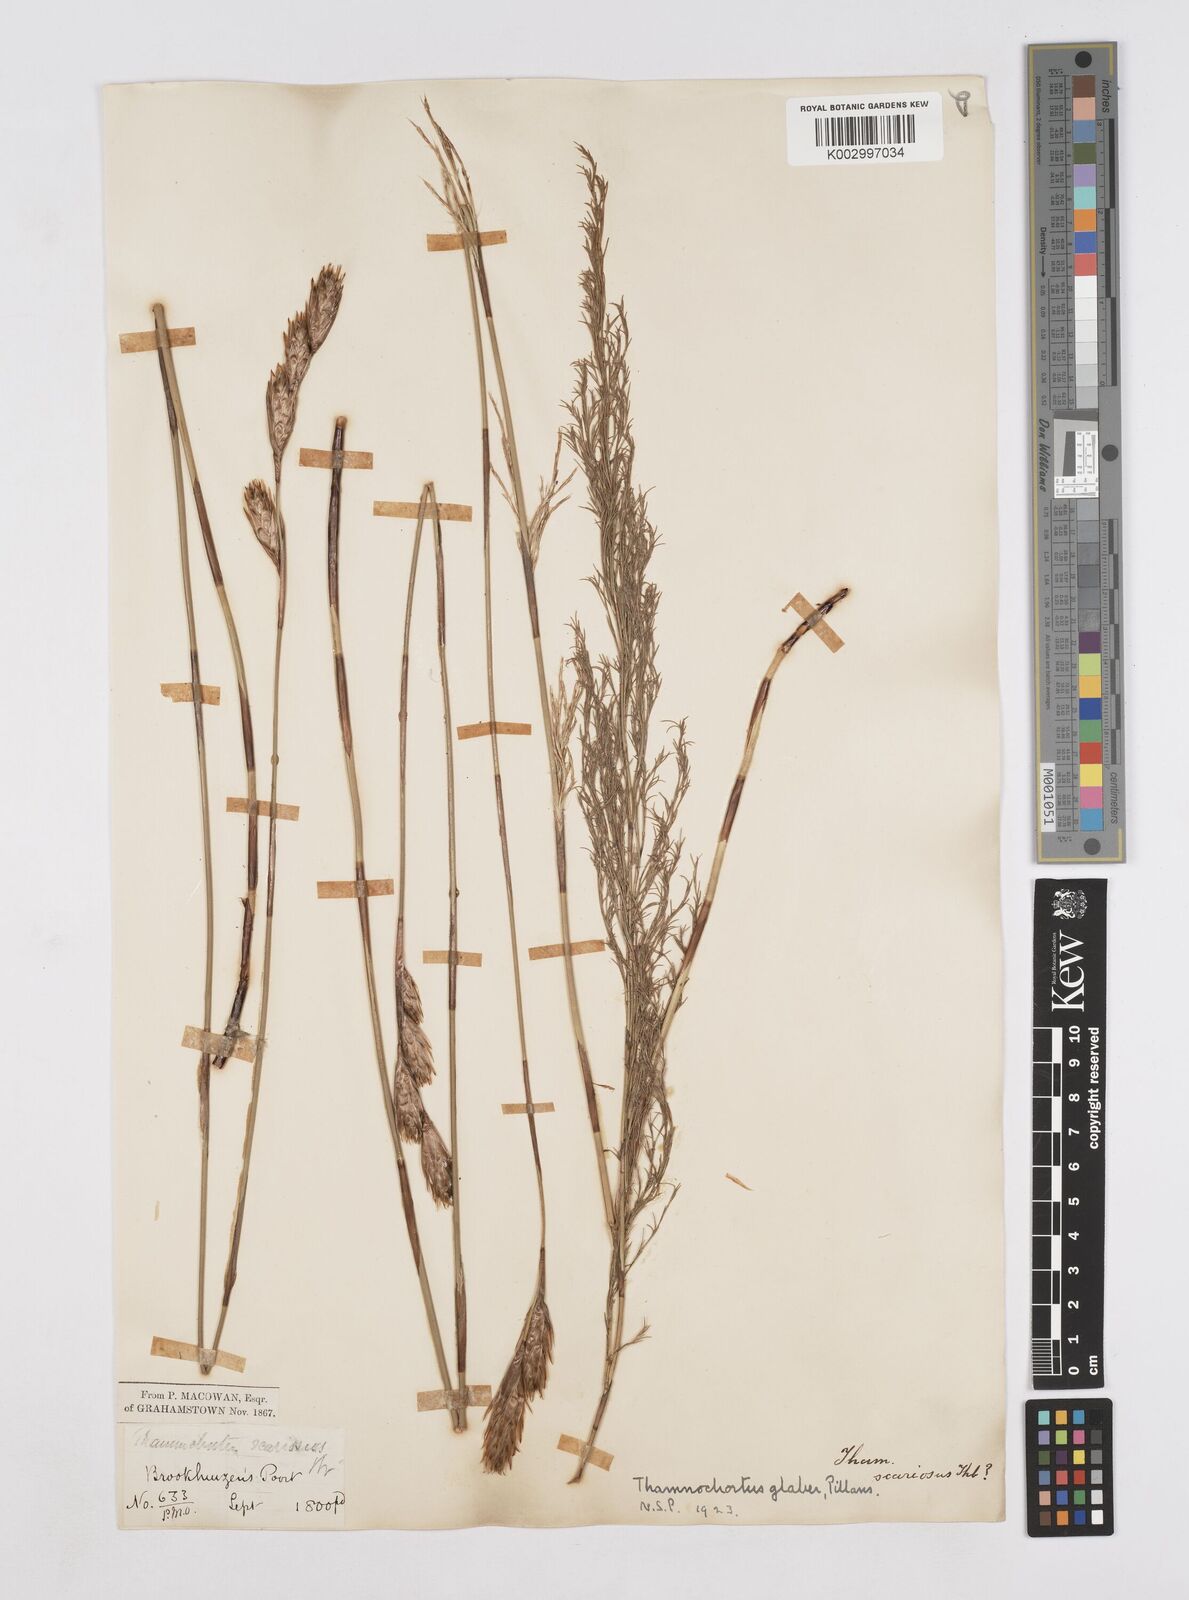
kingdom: Plantae
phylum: Tracheophyta
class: Liliopsida
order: Poales
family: Restionaceae
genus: Thamnochortus
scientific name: Thamnochortus glaber
